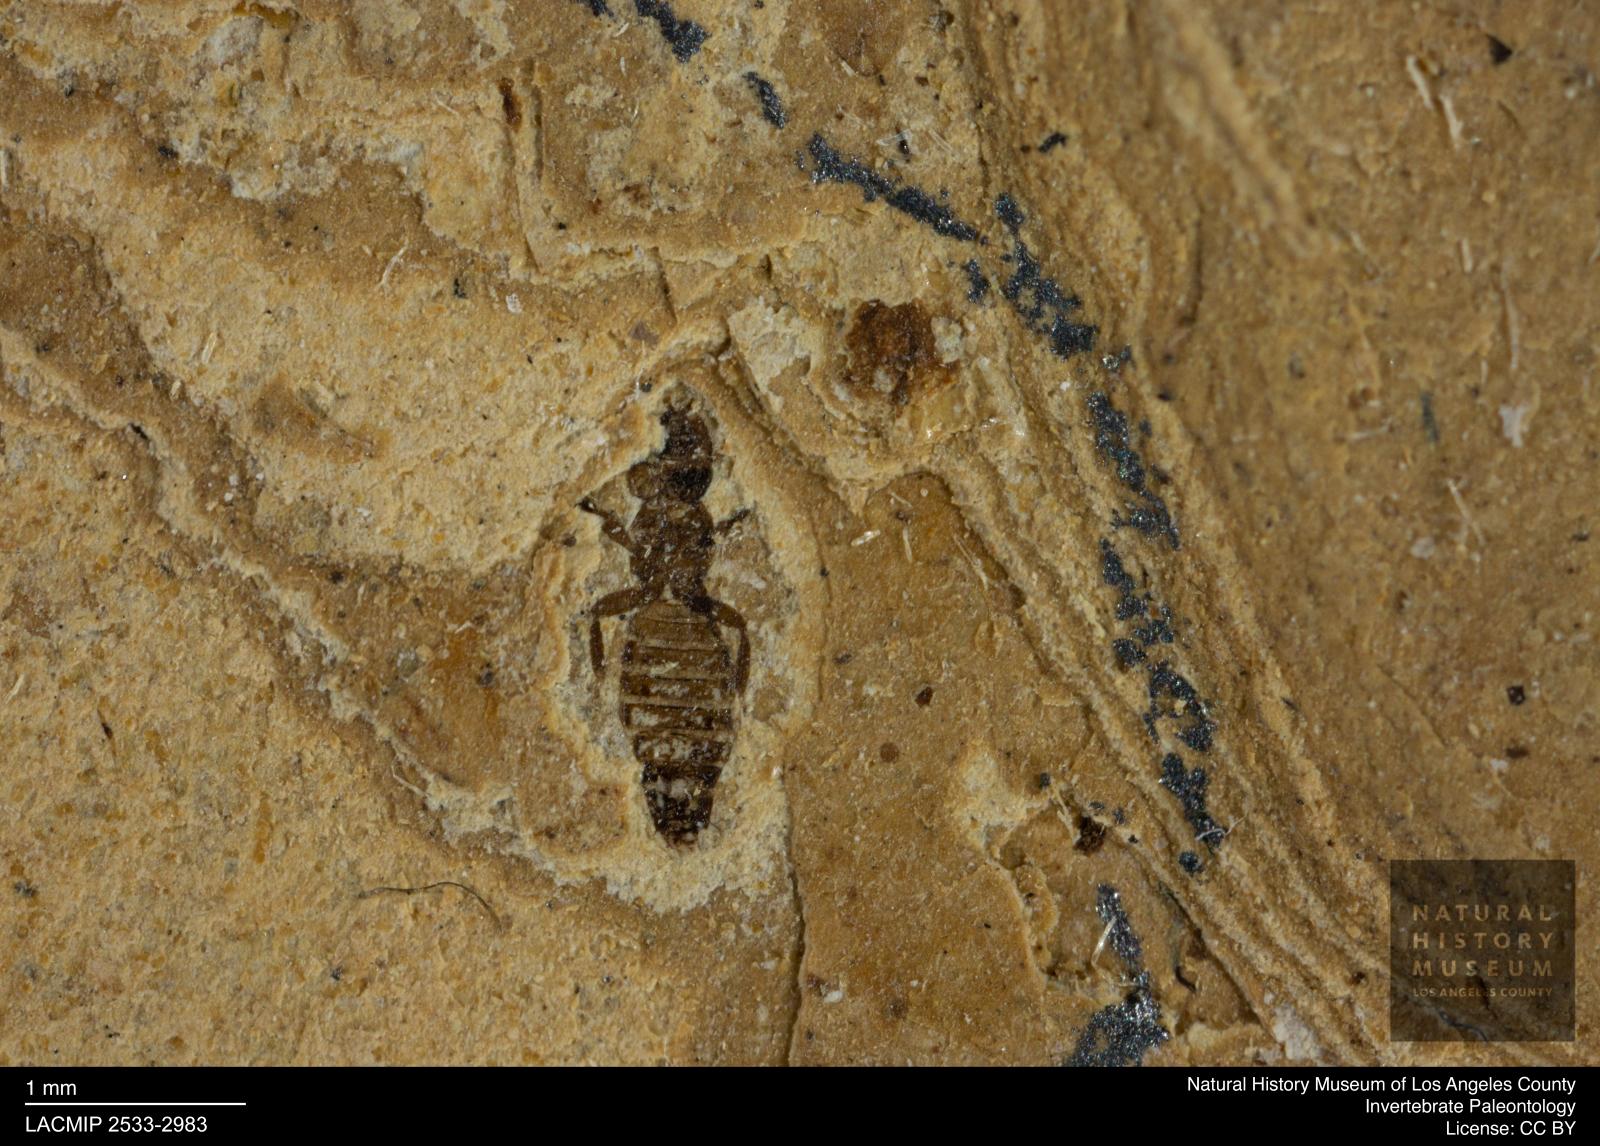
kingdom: Animalia
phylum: Arthropoda
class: Insecta
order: Thysanoptera
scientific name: Thysanoptera
